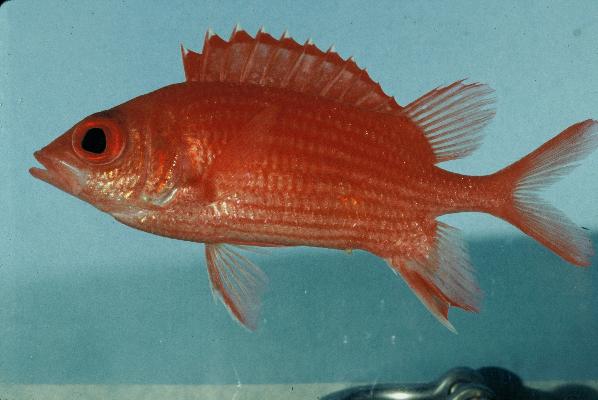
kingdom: Animalia
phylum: Chordata
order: Beryciformes
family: Holocentridae
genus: Sargocentron
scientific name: Sargocentron tiereoides
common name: Pink squirrelfish
